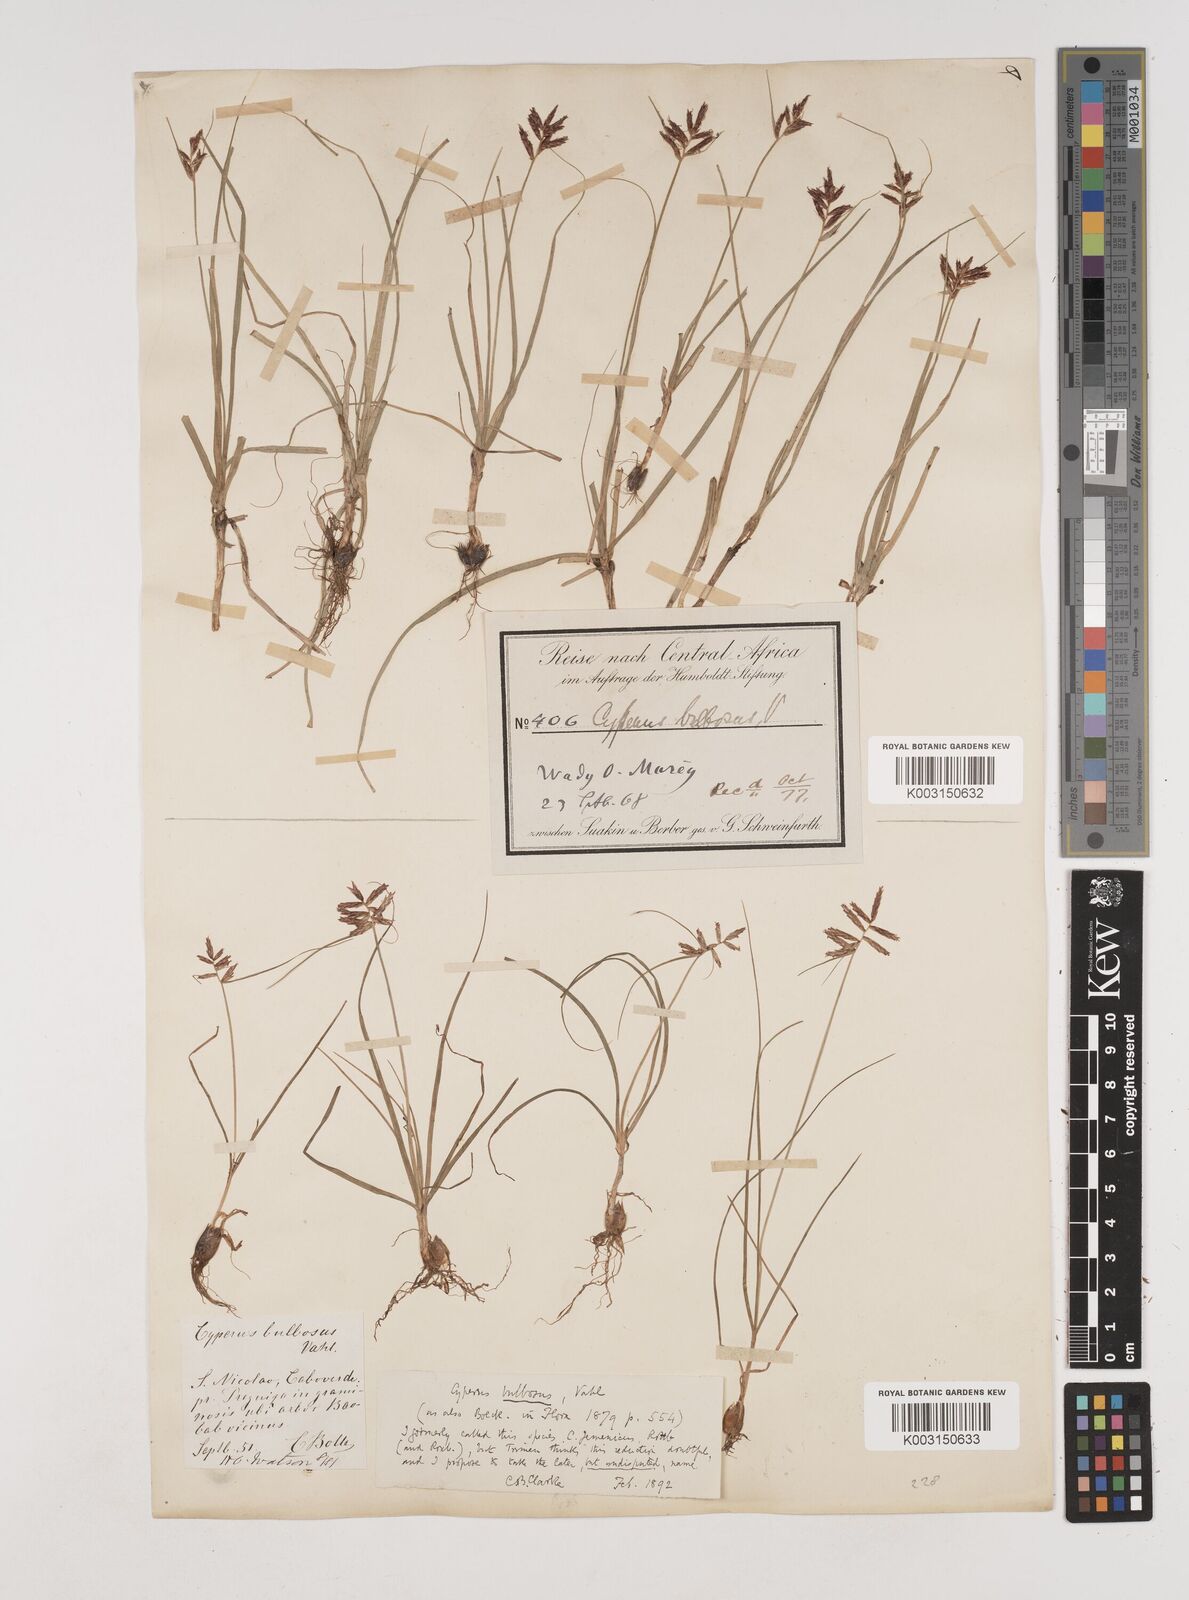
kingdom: Plantae
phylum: Tracheophyta
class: Liliopsida
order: Poales
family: Cyperaceae
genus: Cyperus
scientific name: Cyperus bulbosus
